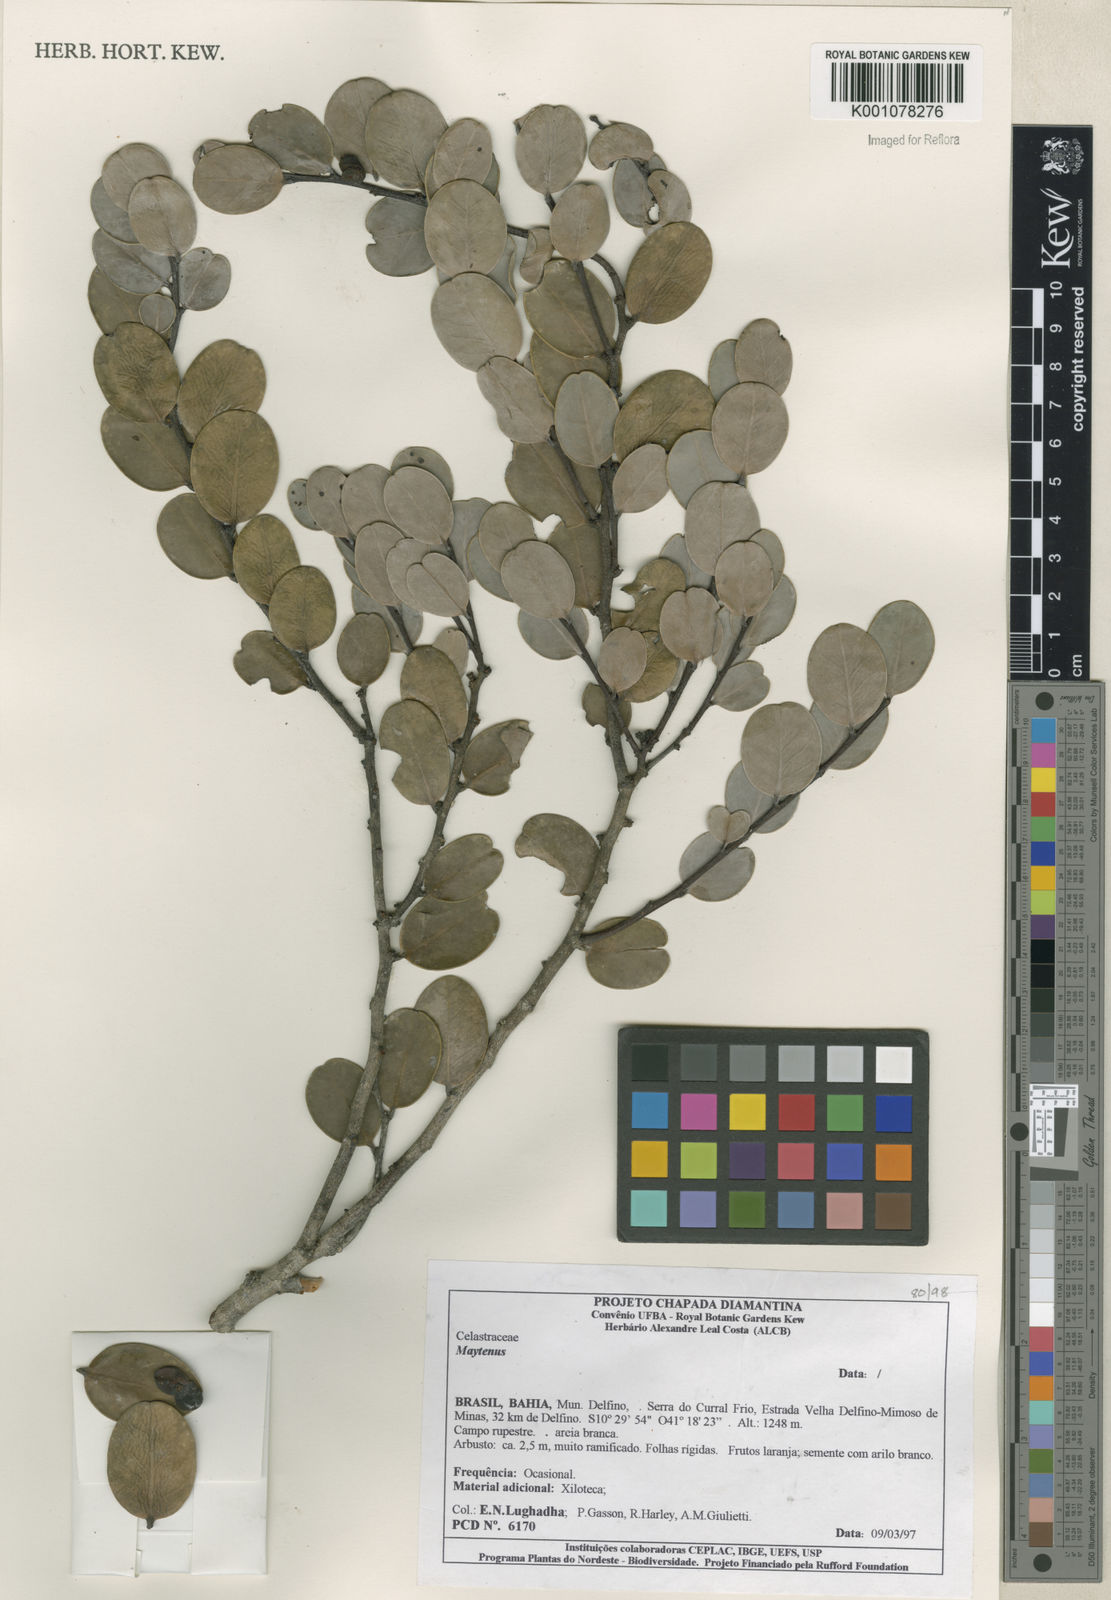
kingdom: Plantae
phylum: Tracheophyta
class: Magnoliopsida
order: Celastrales
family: Celastraceae
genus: Maytenus
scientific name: Maytenus
